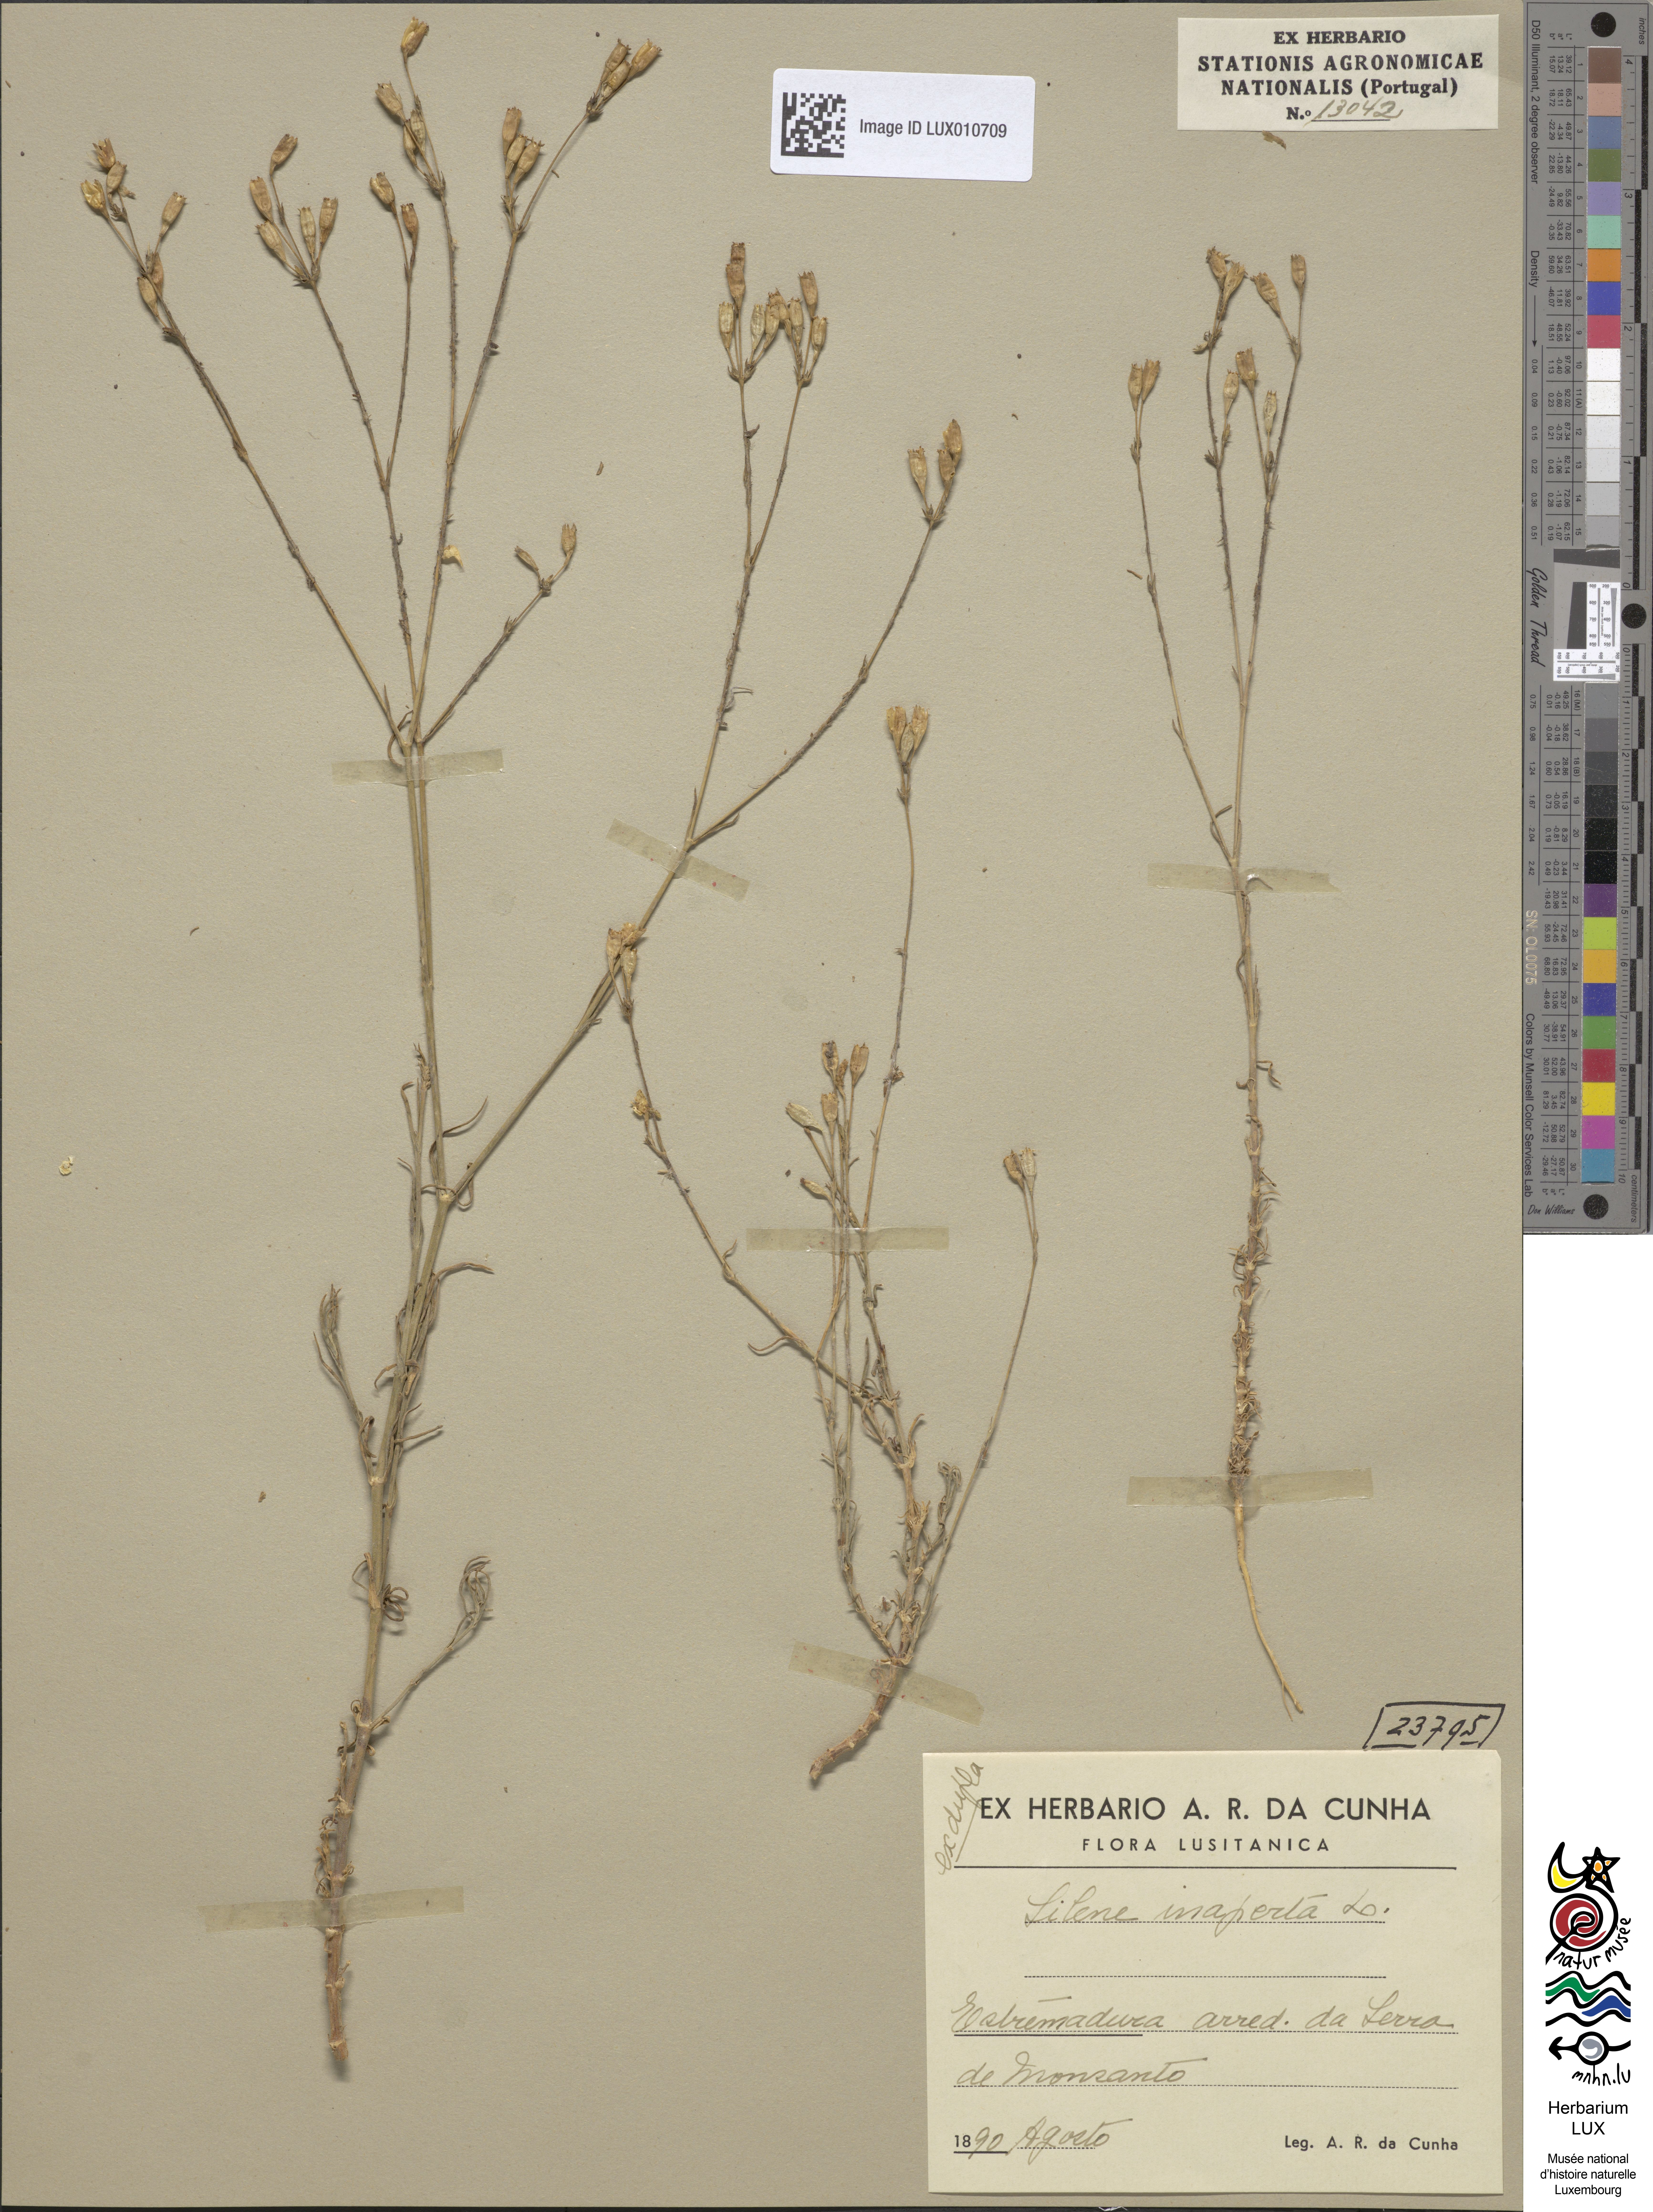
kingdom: Plantae
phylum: Tracheophyta
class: Magnoliopsida
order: Caryophyllales
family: Caryophyllaceae
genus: Silene
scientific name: Silene inaperta
